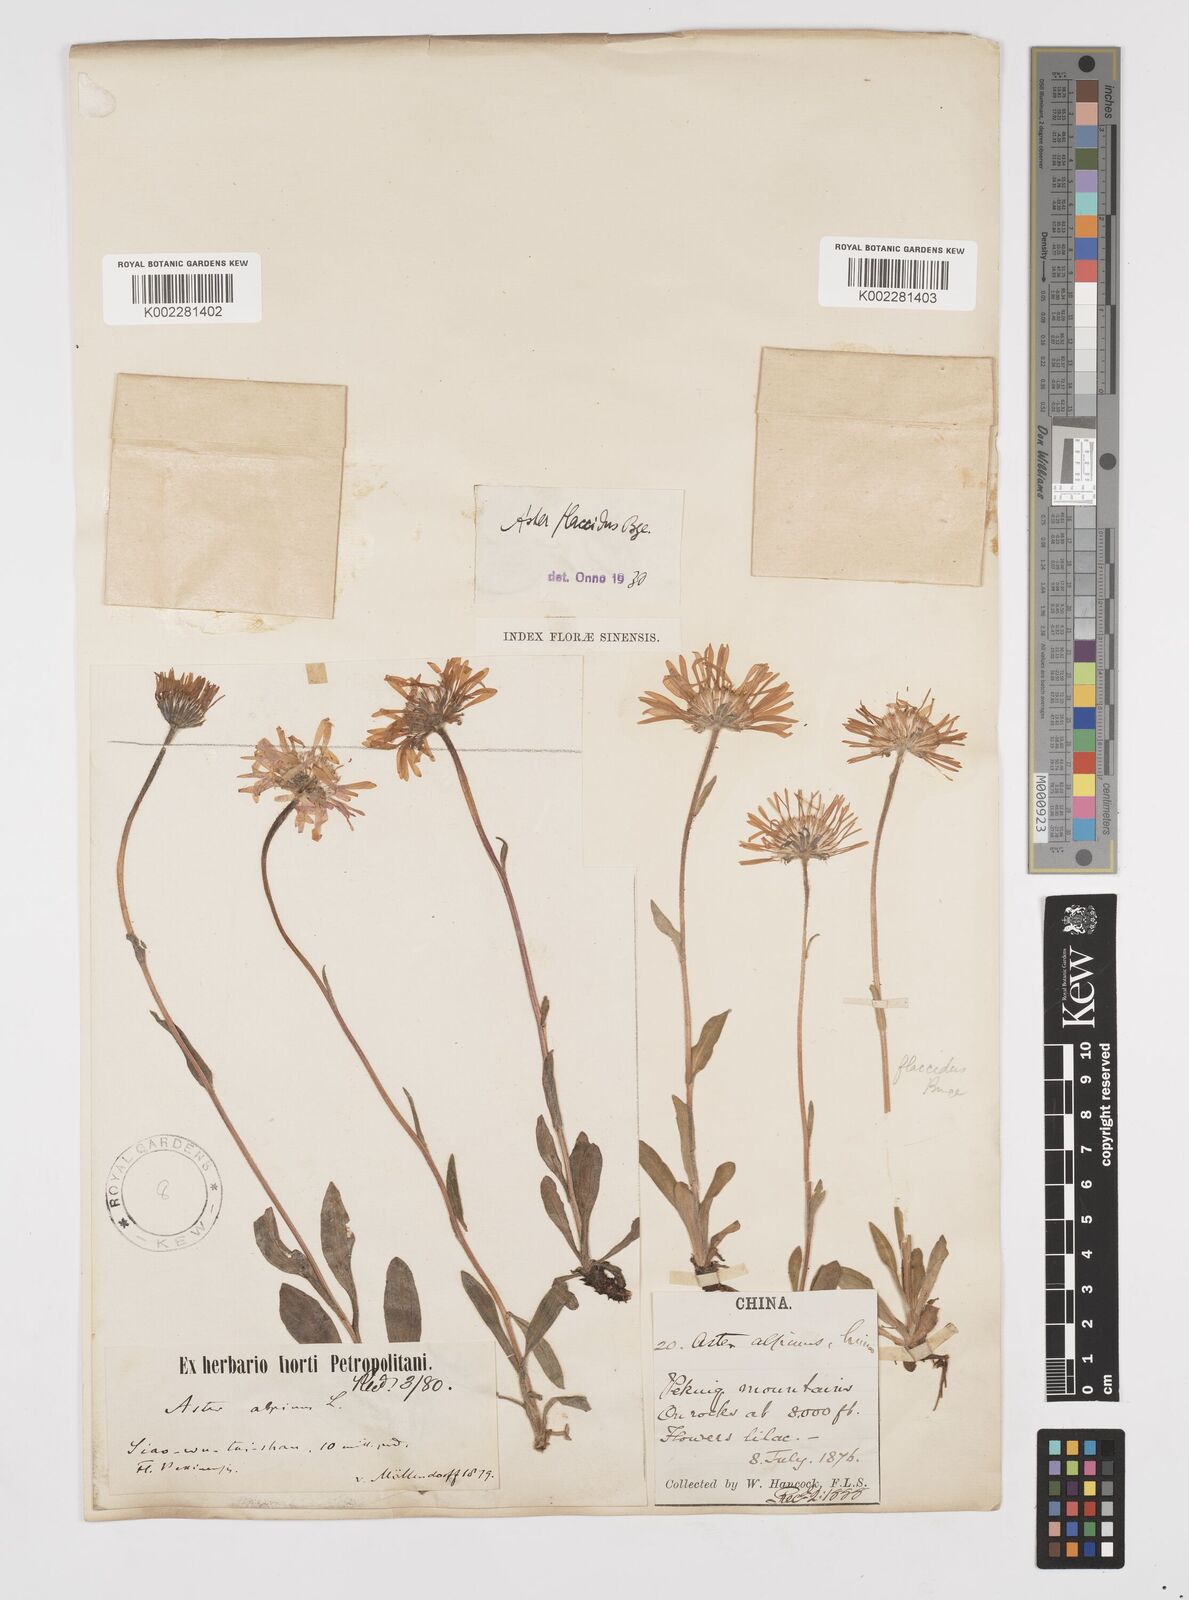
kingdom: Plantae
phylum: Tracheophyta
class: Magnoliopsida
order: Asterales
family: Asteraceae
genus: Tibetiodes
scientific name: Tibetiodes flaccida
